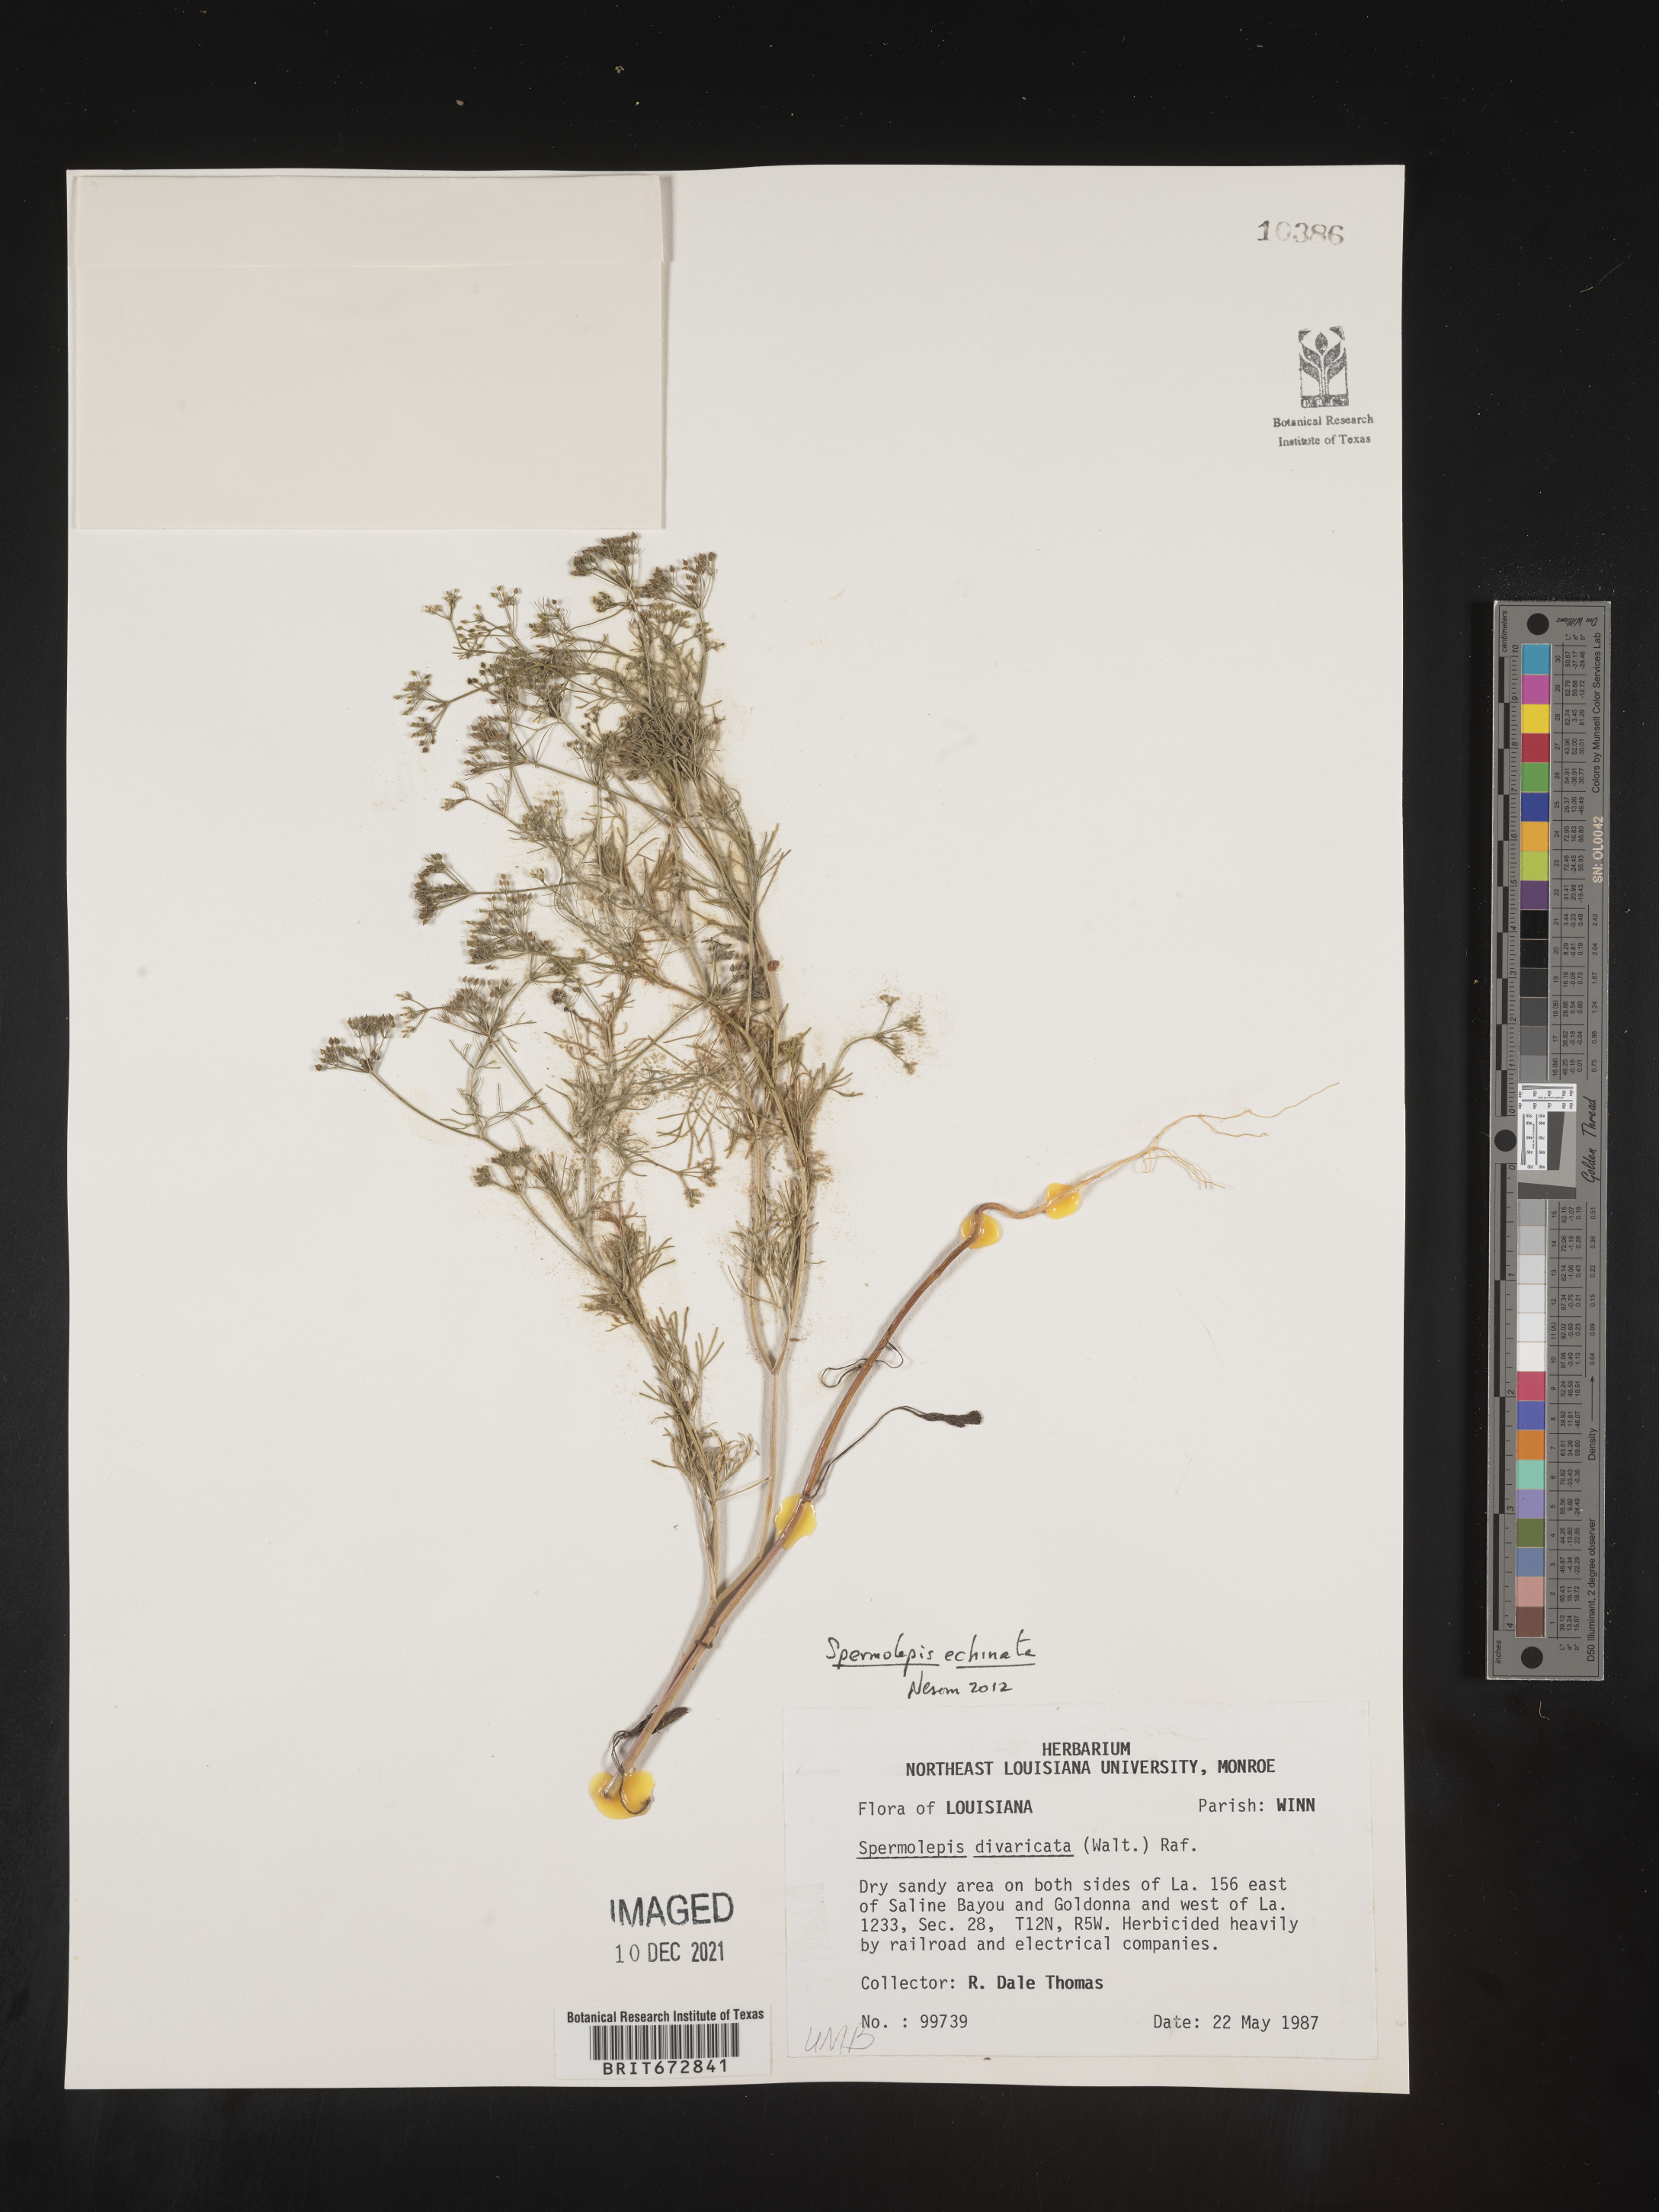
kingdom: Plantae
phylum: Tracheophyta
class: Magnoliopsida
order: Apiales
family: Apiaceae
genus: Spermolepis
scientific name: Spermolepis echinata
